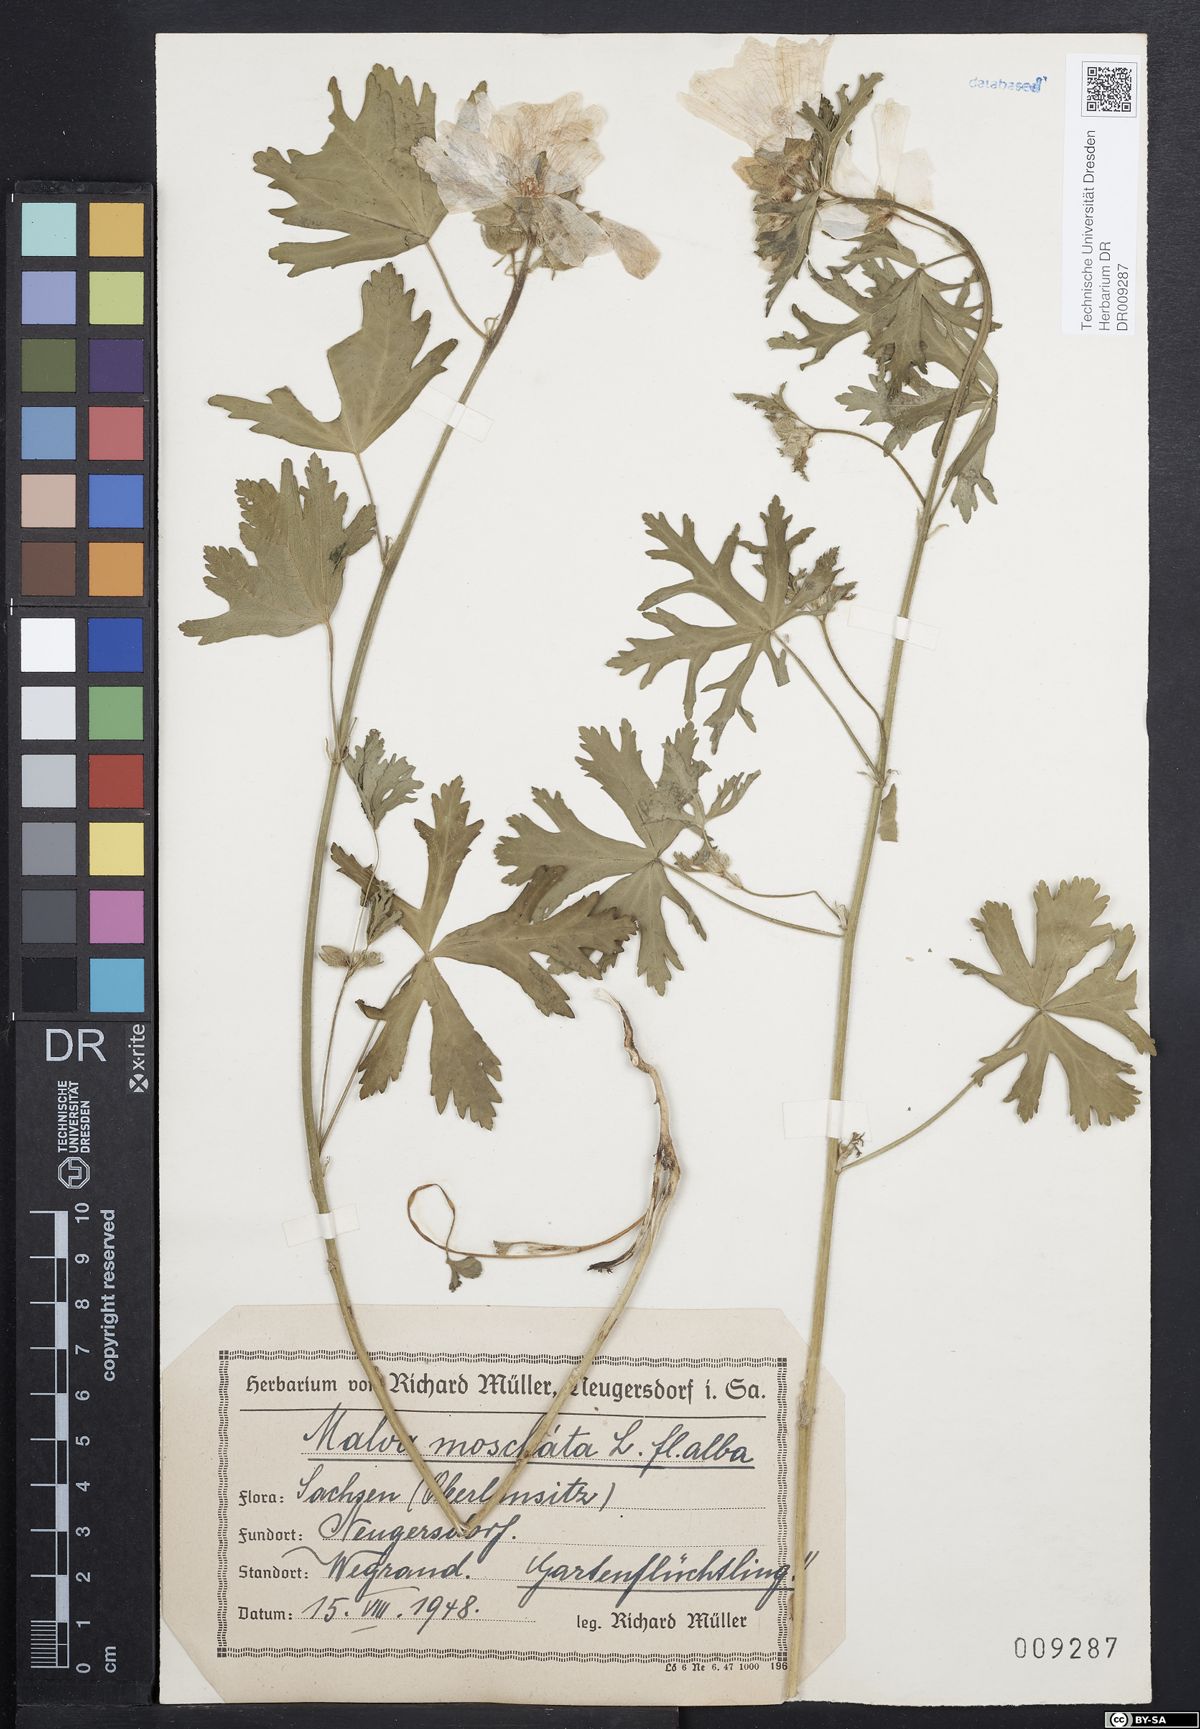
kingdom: Plantae
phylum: Tracheophyta
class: Magnoliopsida
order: Malvales
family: Malvaceae
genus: Malva
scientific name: Malva moschata
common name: Musk mallow
